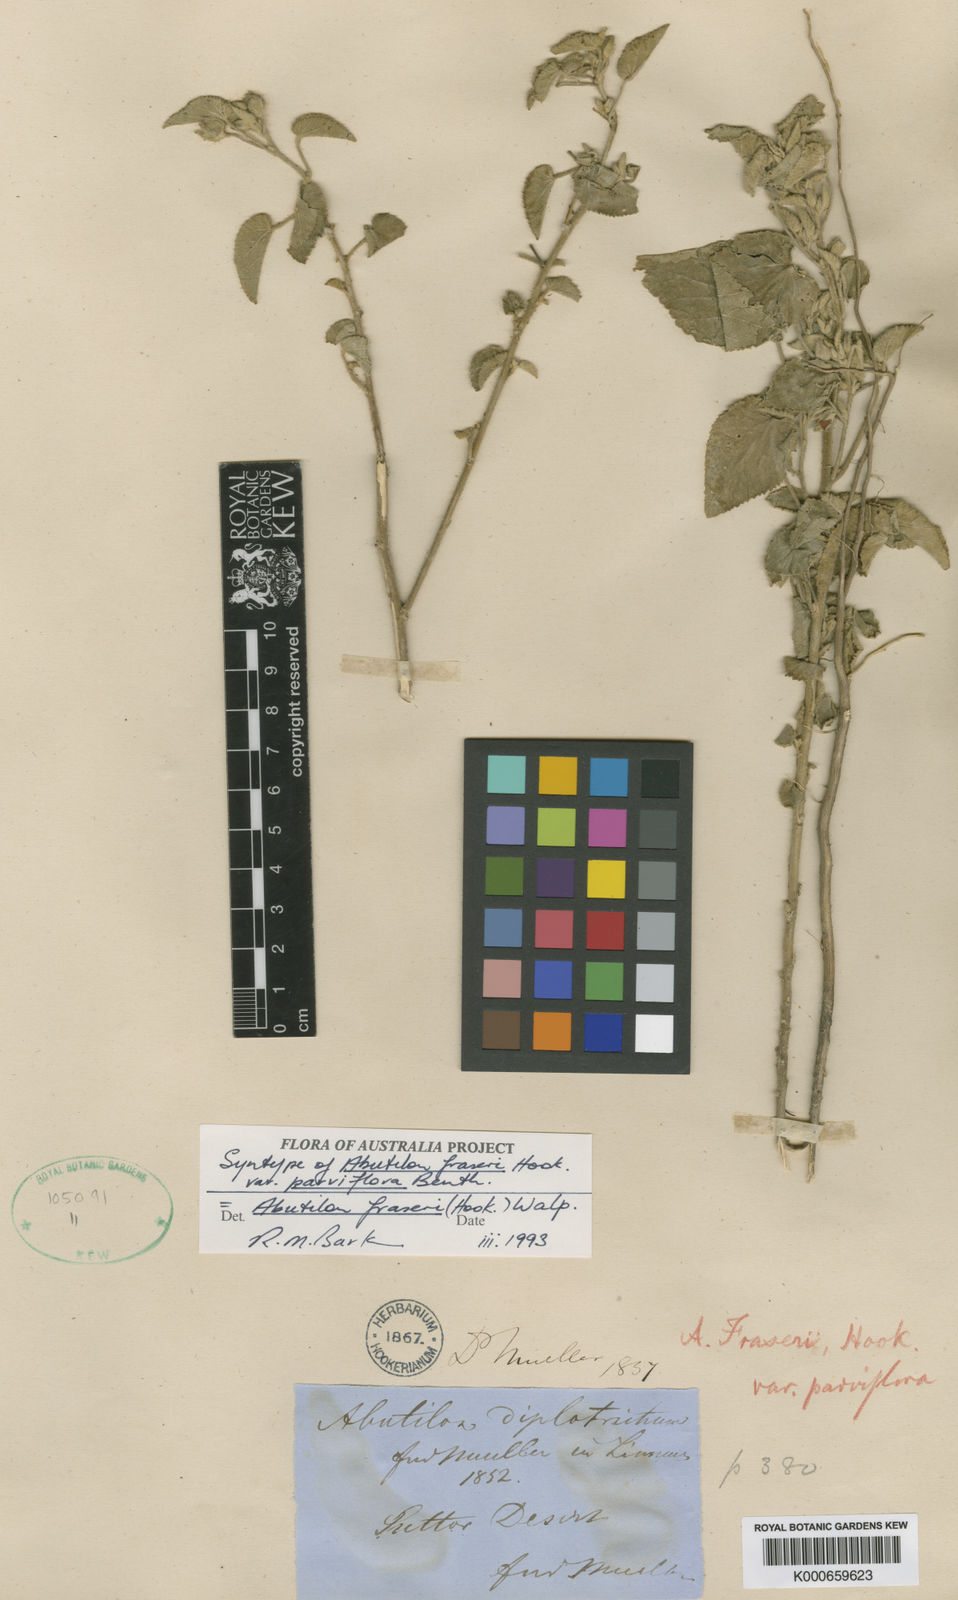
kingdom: Plantae
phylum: Tracheophyta
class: Magnoliopsida
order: Malvales
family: Malvaceae
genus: Abutilon
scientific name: Abutilon fraseri
